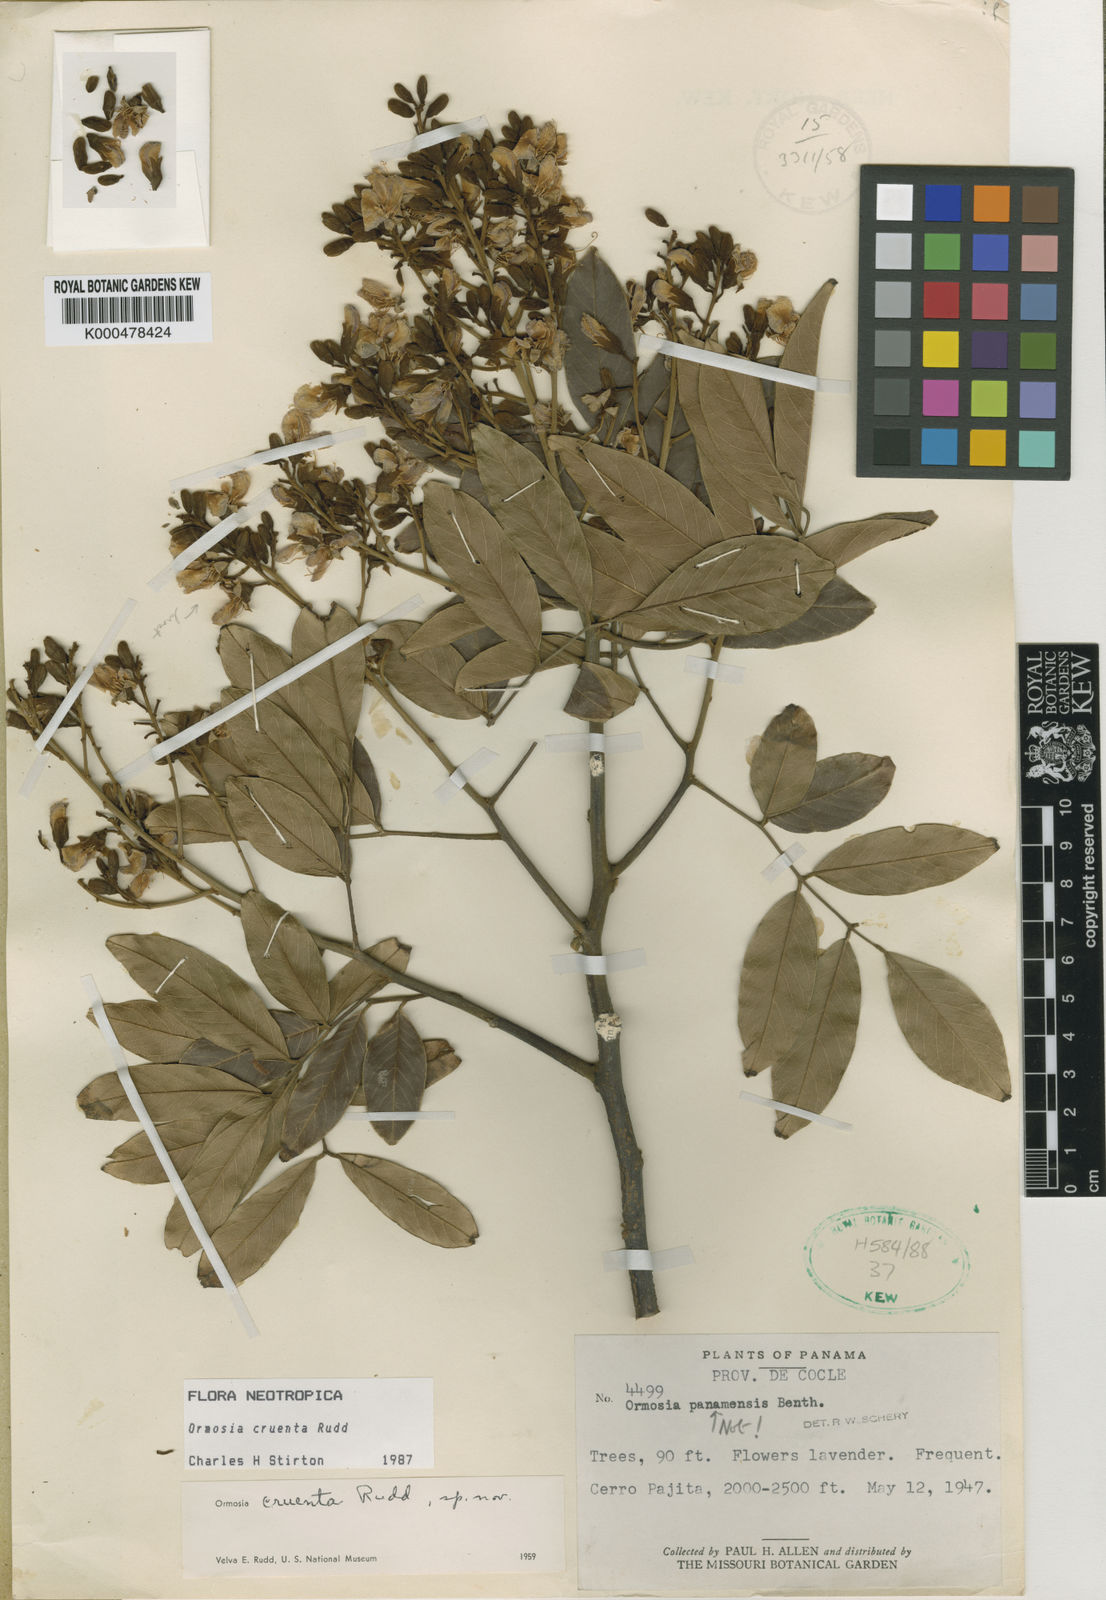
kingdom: Plantae
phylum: Tracheophyta
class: Magnoliopsida
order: Fabales
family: Fabaceae
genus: Ormosia
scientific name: Ormosia cruenta
